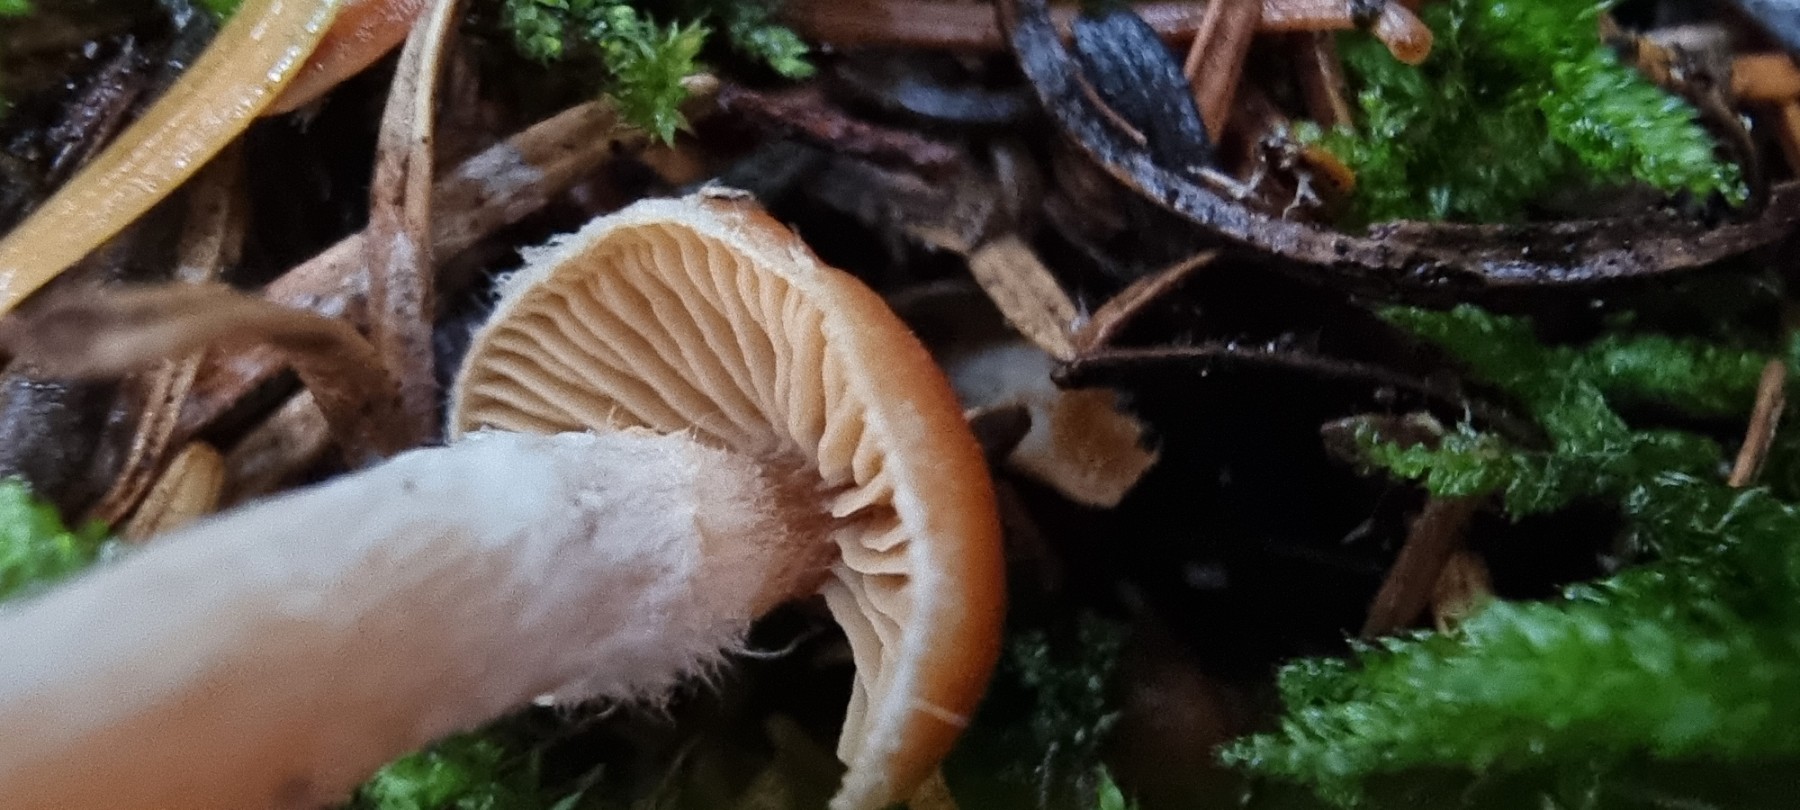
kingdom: Fungi
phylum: Basidiomycota
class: Agaricomycetes
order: Agaricales
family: Cortinariaceae
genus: Cortinarius
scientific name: Cortinarius
